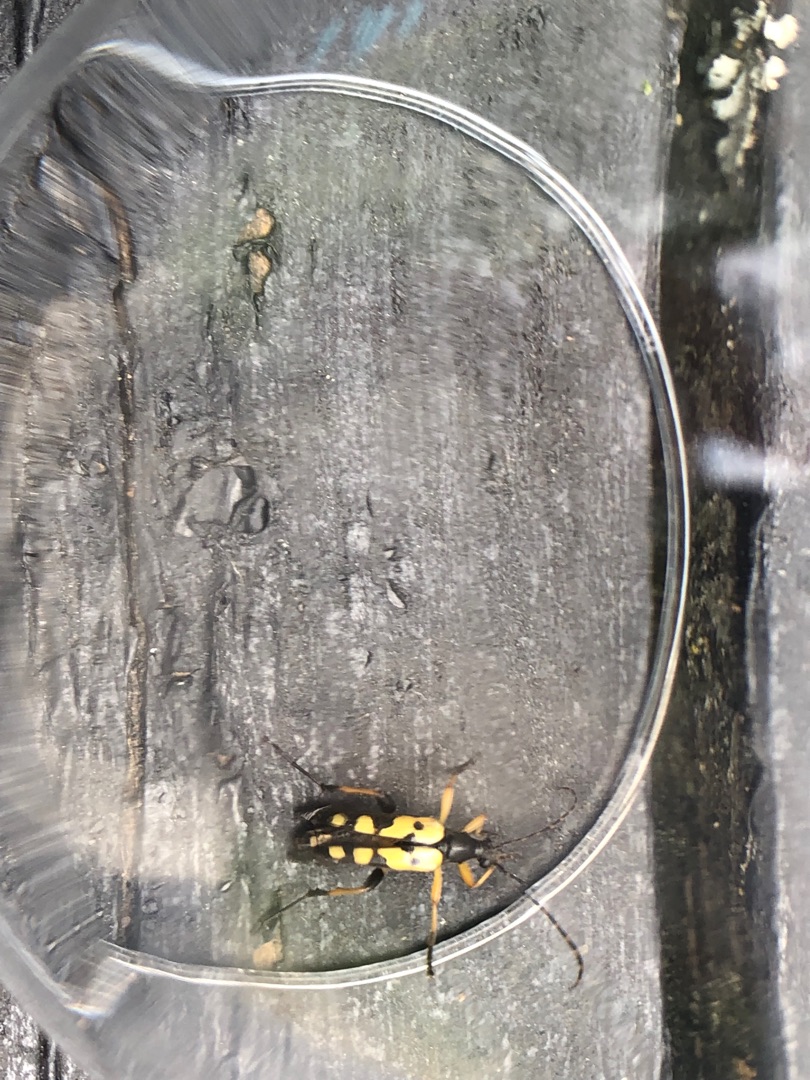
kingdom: Animalia
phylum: Arthropoda
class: Insecta
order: Coleoptera
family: Cerambycidae
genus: Rutpela
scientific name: Rutpela maculata
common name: Sydlig blomsterbuk
